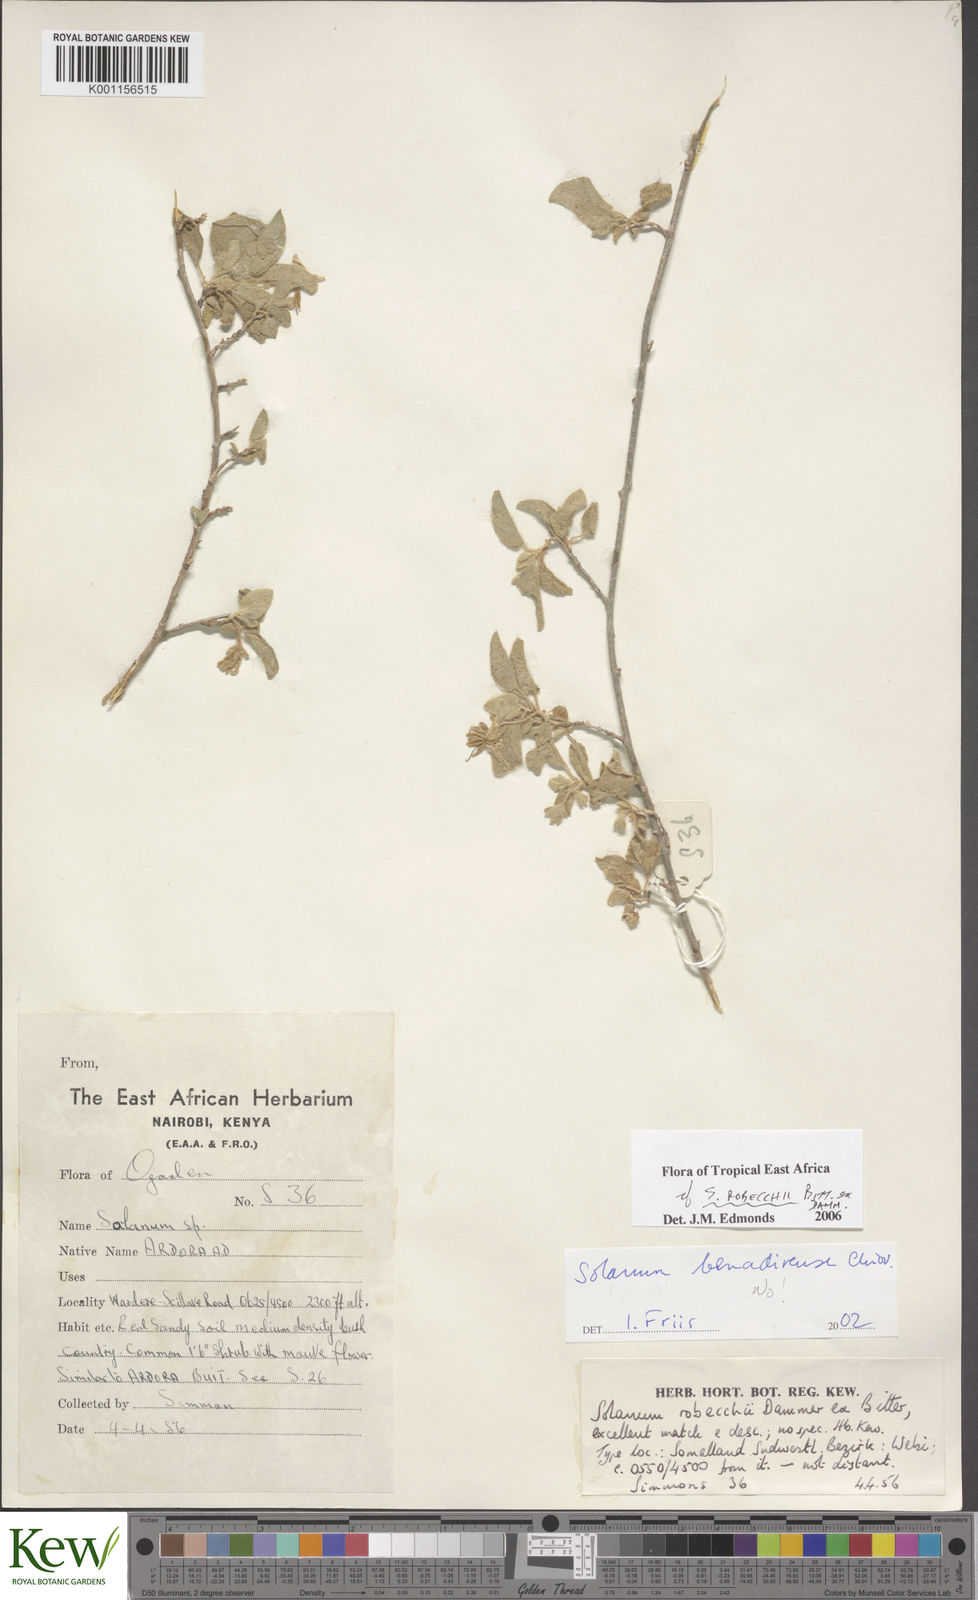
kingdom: Plantae
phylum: Tracheophyta
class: Magnoliopsida
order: Solanales
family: Solanaceae
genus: Solanum
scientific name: Solanum pampaninii
